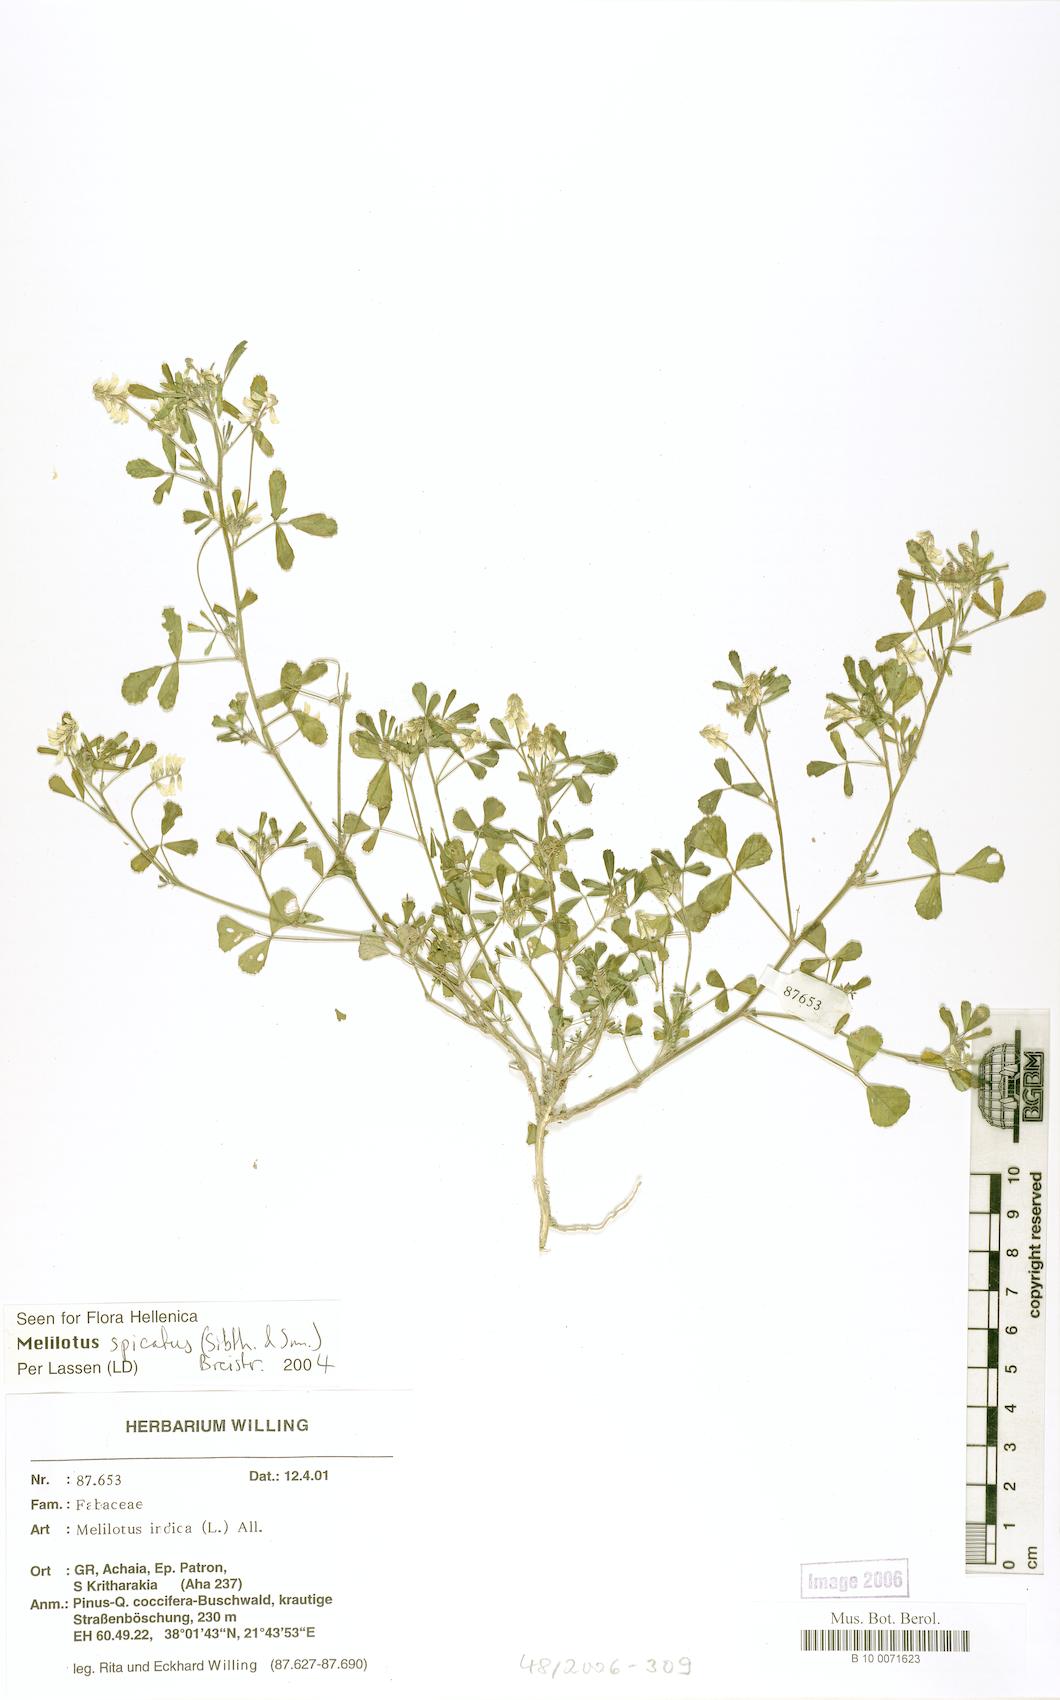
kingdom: Plantae
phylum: Tracheophyta
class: Magnoliopsida
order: Fabales
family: Fabaceae
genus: Melilotus
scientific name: Melilotus indicus
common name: Small melilot
